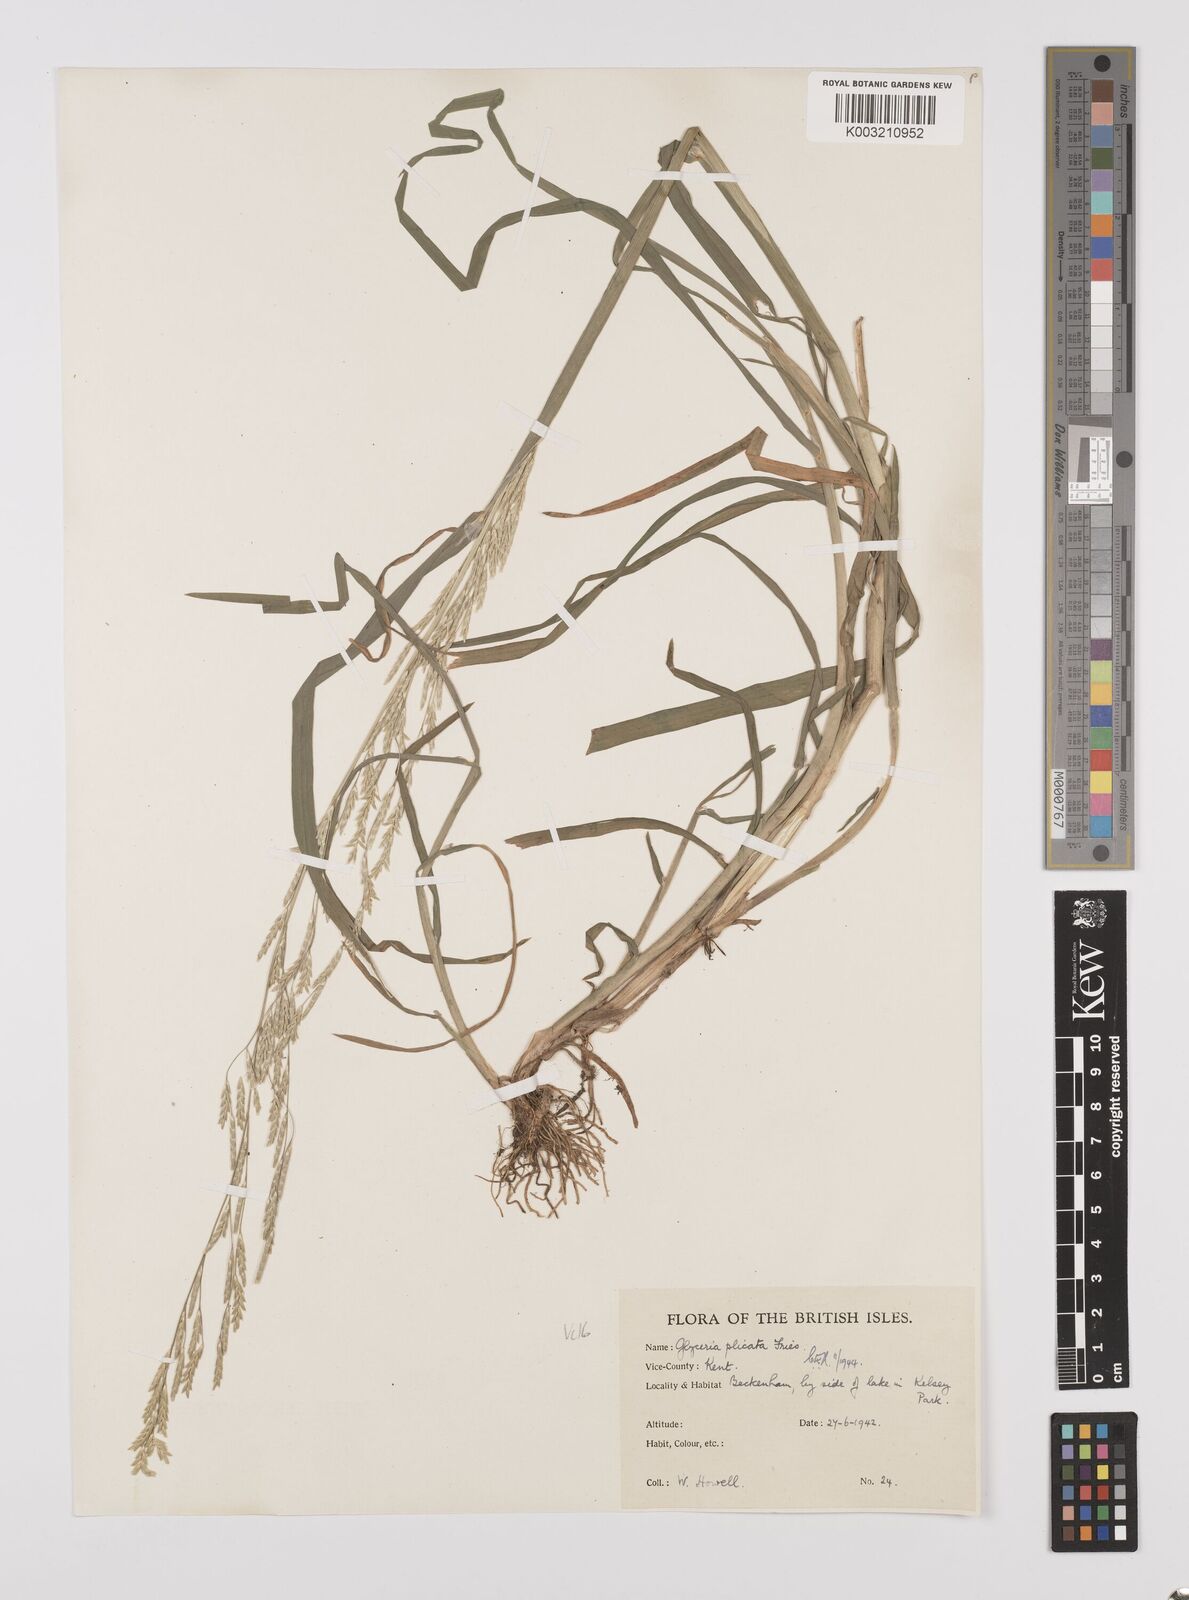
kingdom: Plantae
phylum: Tracheophyta
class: Liliopsida
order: Poales
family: Poaceae
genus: Glyceria
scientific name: Glyceria notata
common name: Plicate sweet-grass
